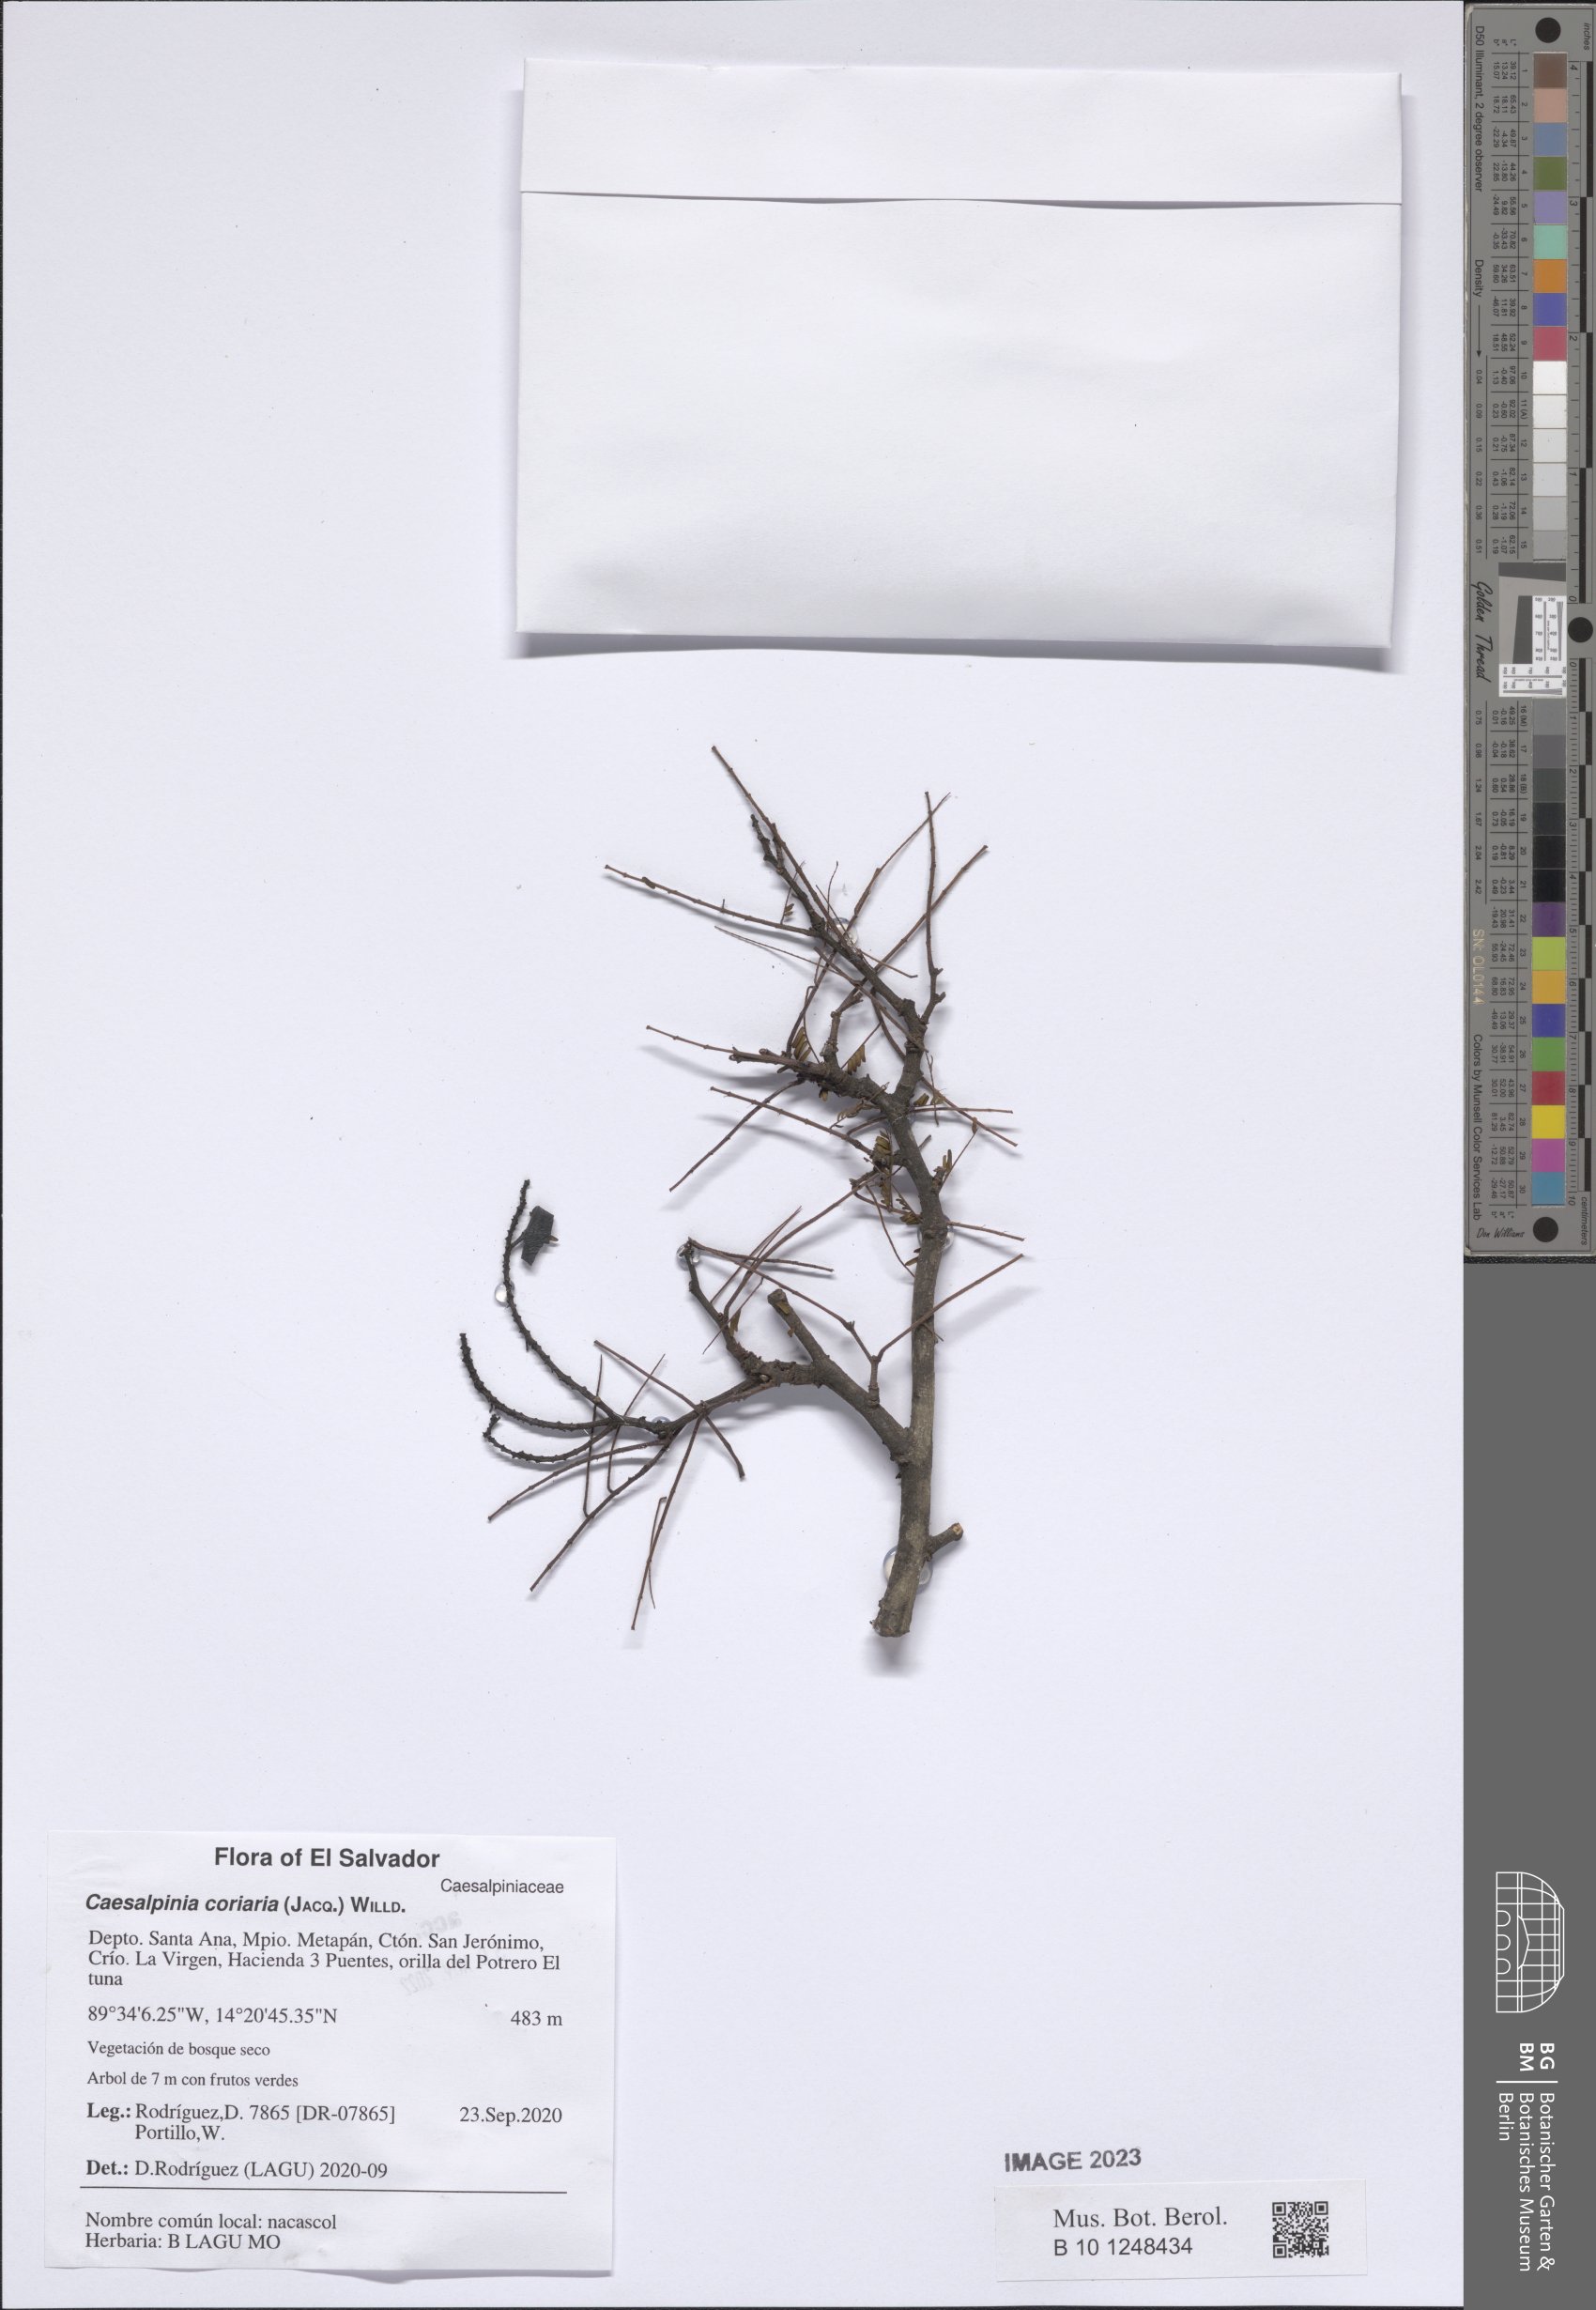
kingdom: Plantae
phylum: Tracheophyta
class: Magnoliopsida
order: Fabales
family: Fabaceae
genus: Libidibia
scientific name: Libidibia coriaria
